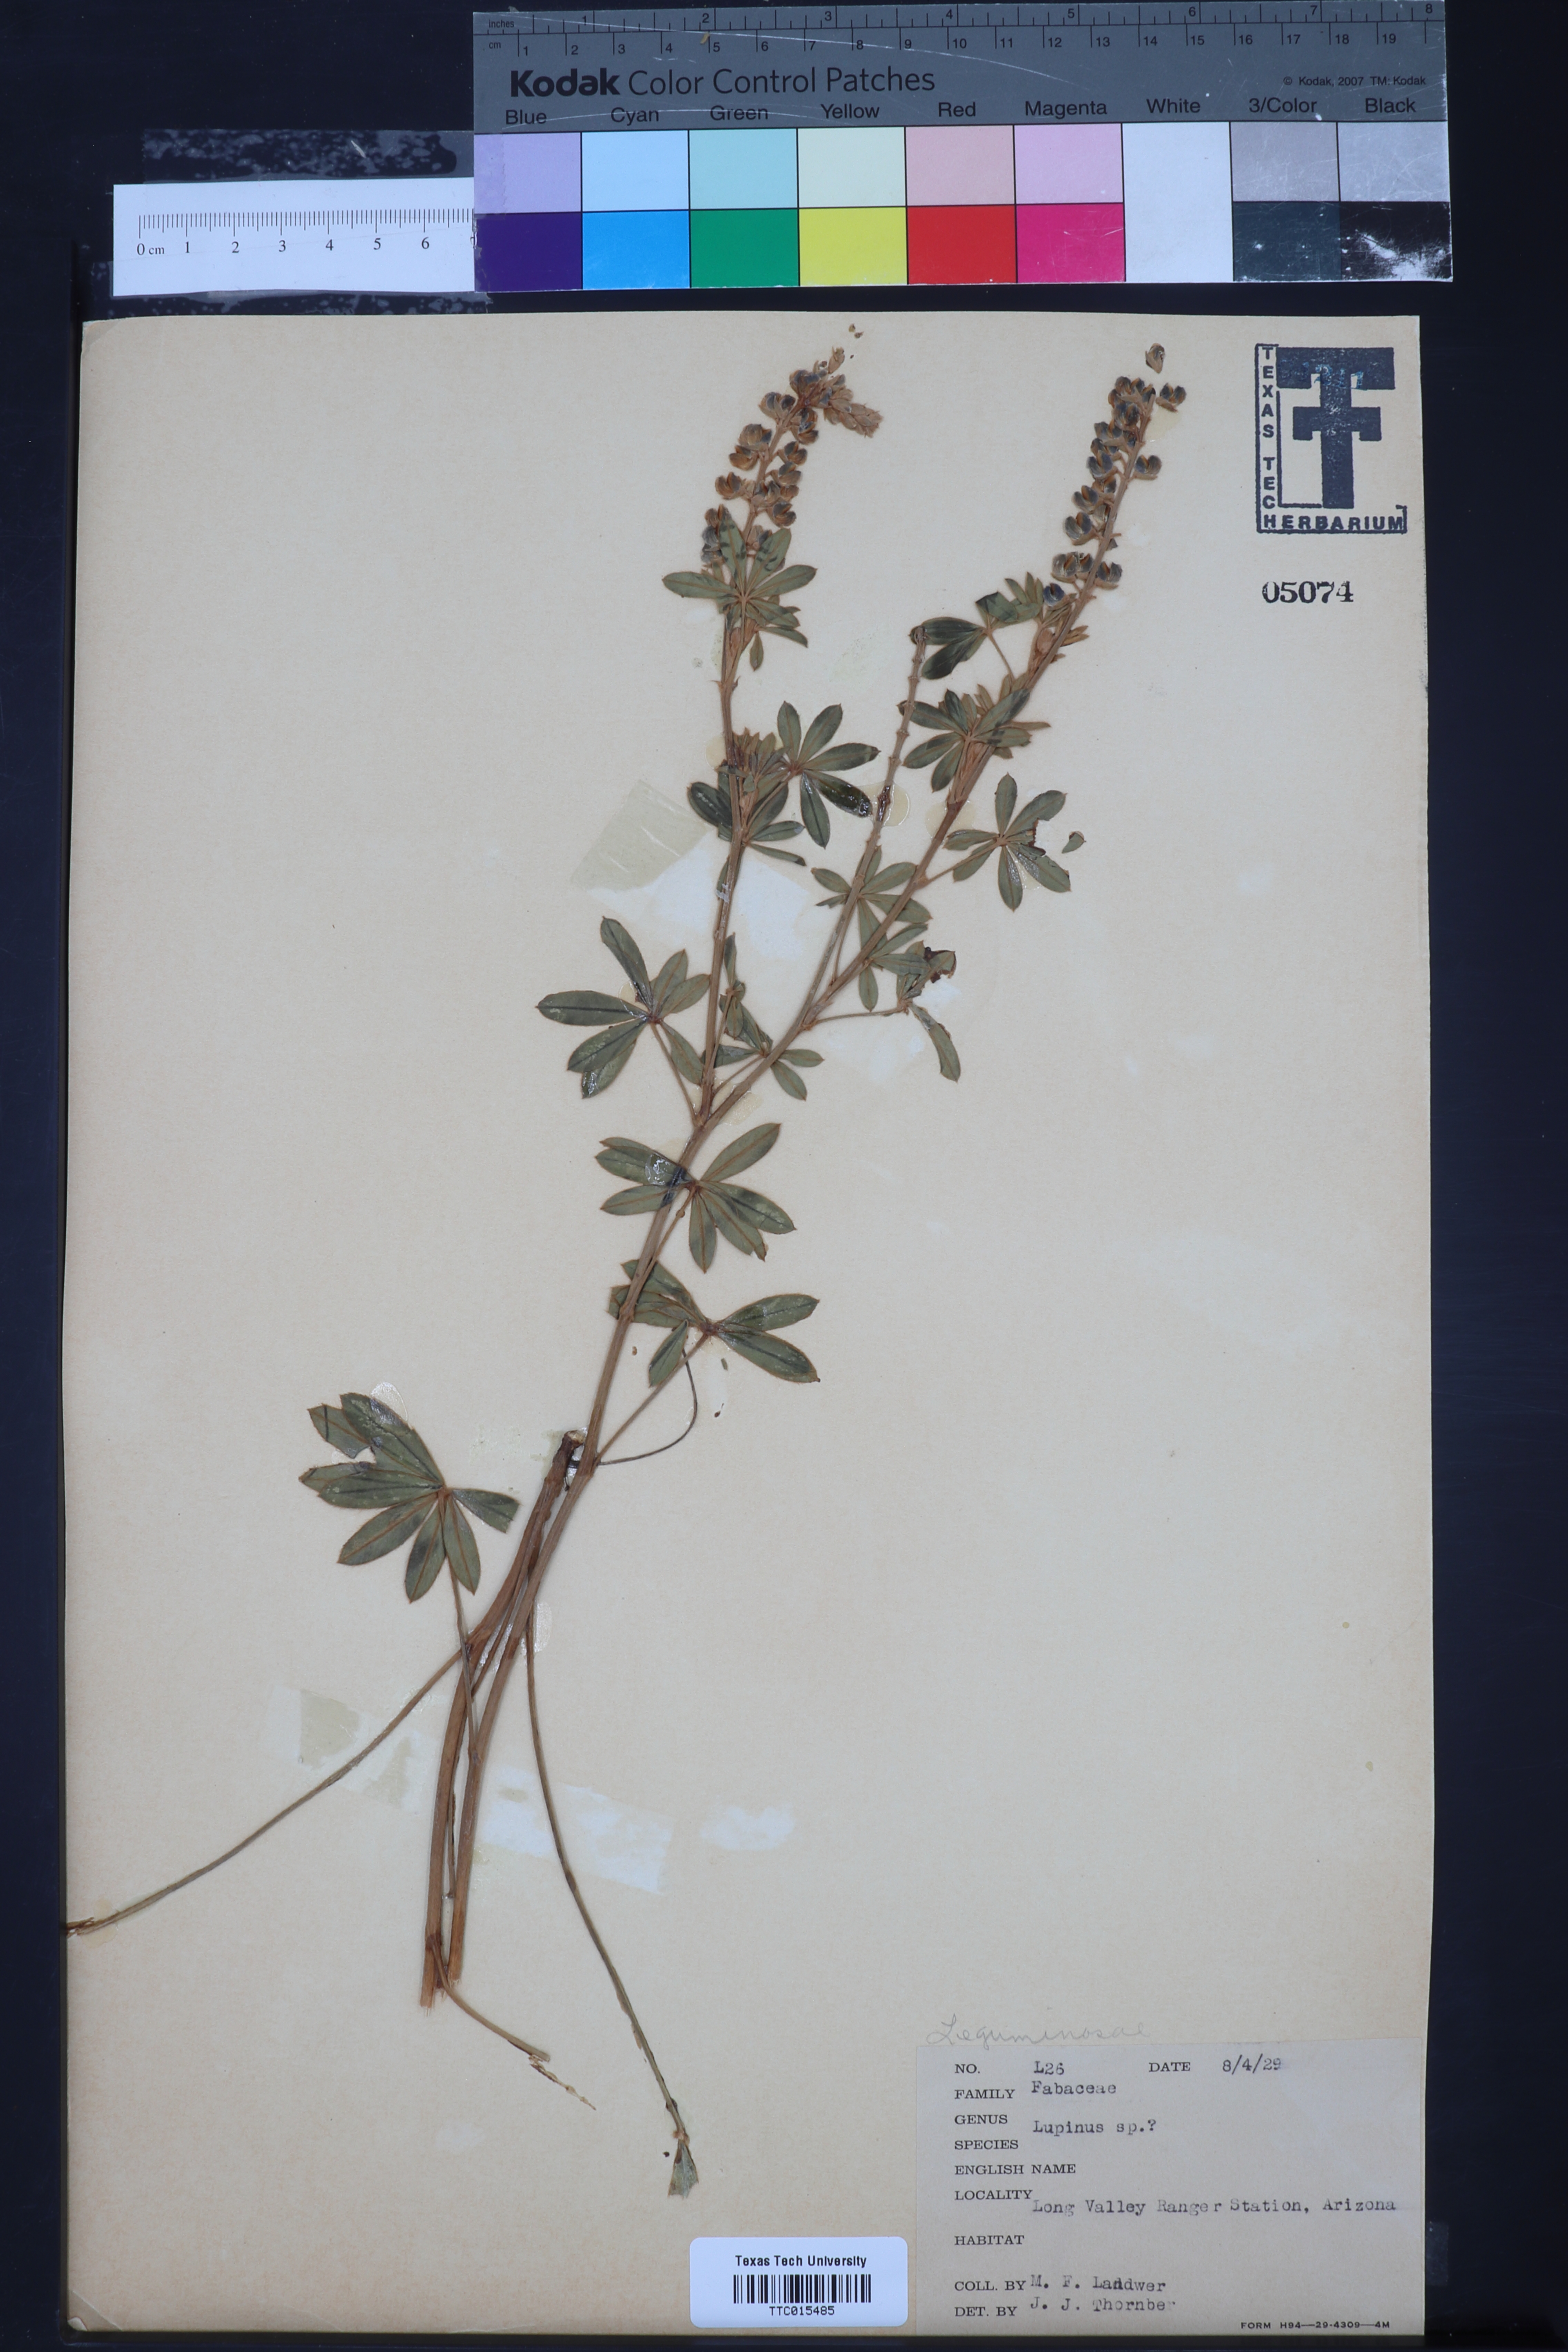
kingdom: Plantae
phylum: Tracheophyta
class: Magnoliopsida
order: Fabales
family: Fabaceae
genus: Lupinus
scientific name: Lupinus
